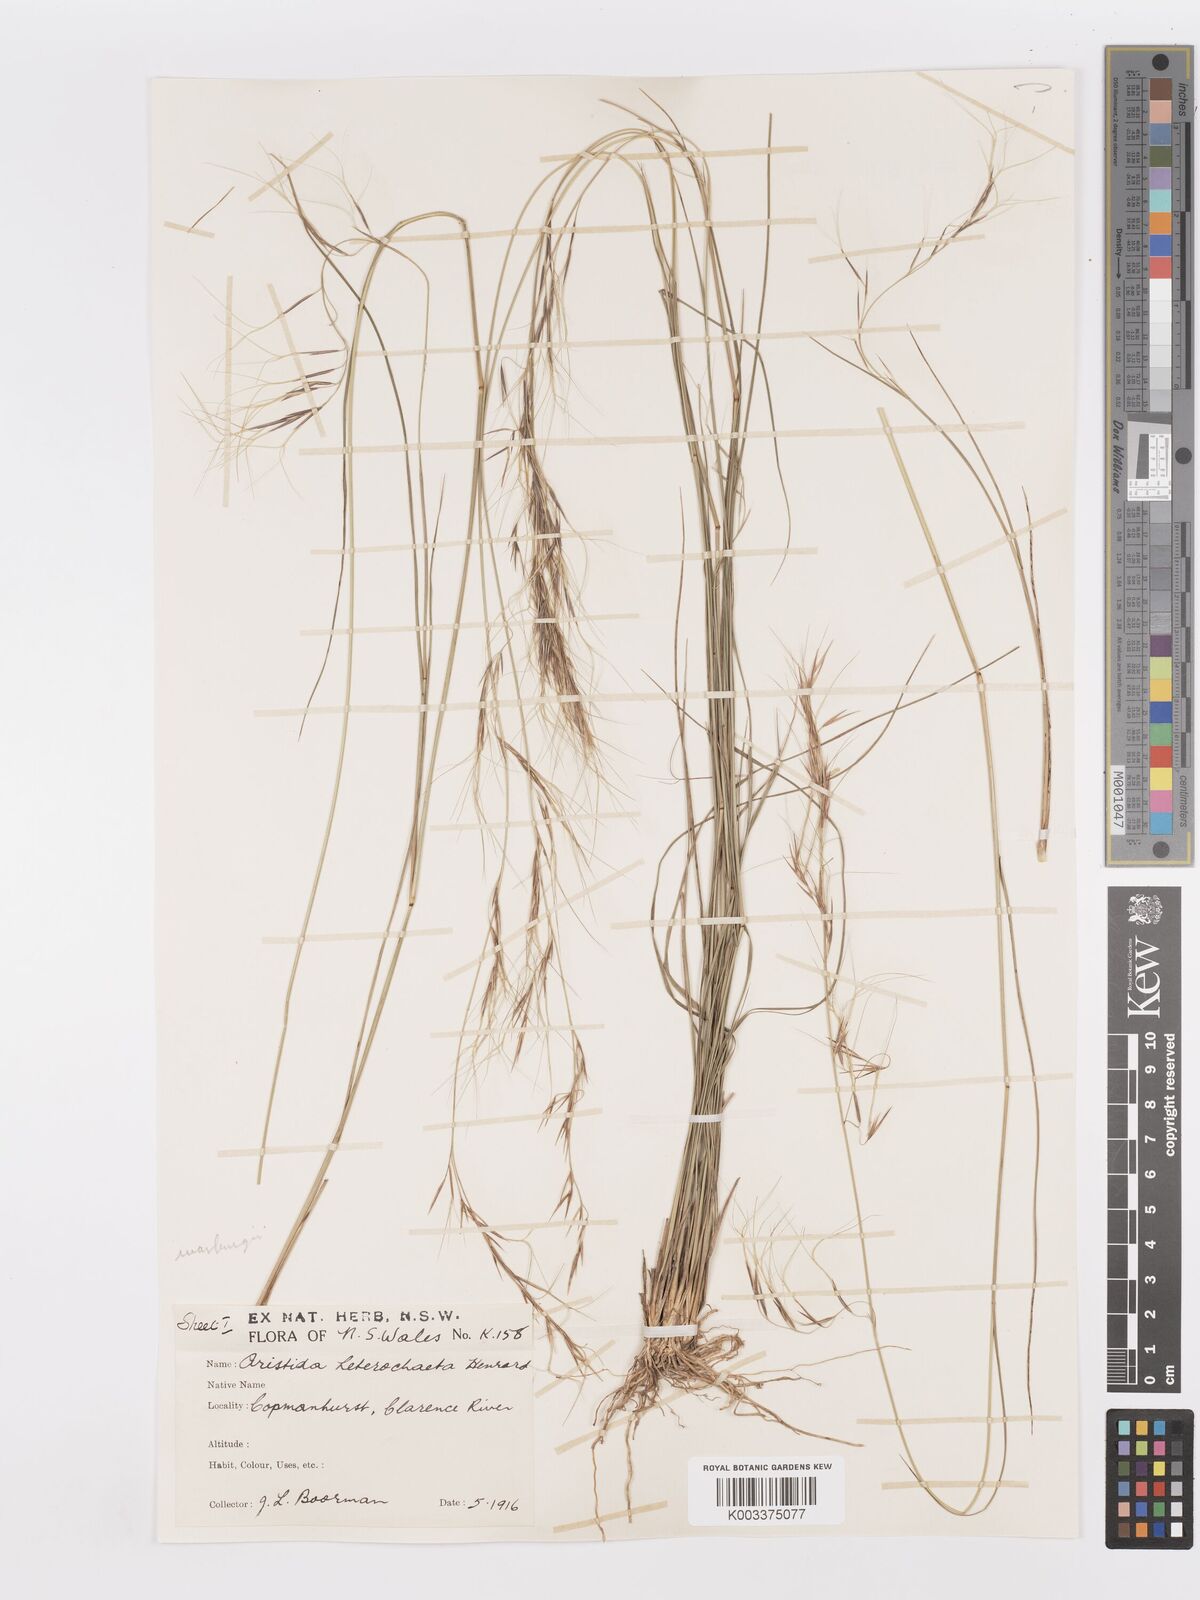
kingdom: Plantae
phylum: Tracheophyta
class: Liliopsida
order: Poales
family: Poaceae
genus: Aristida
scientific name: Aristida warburgii
